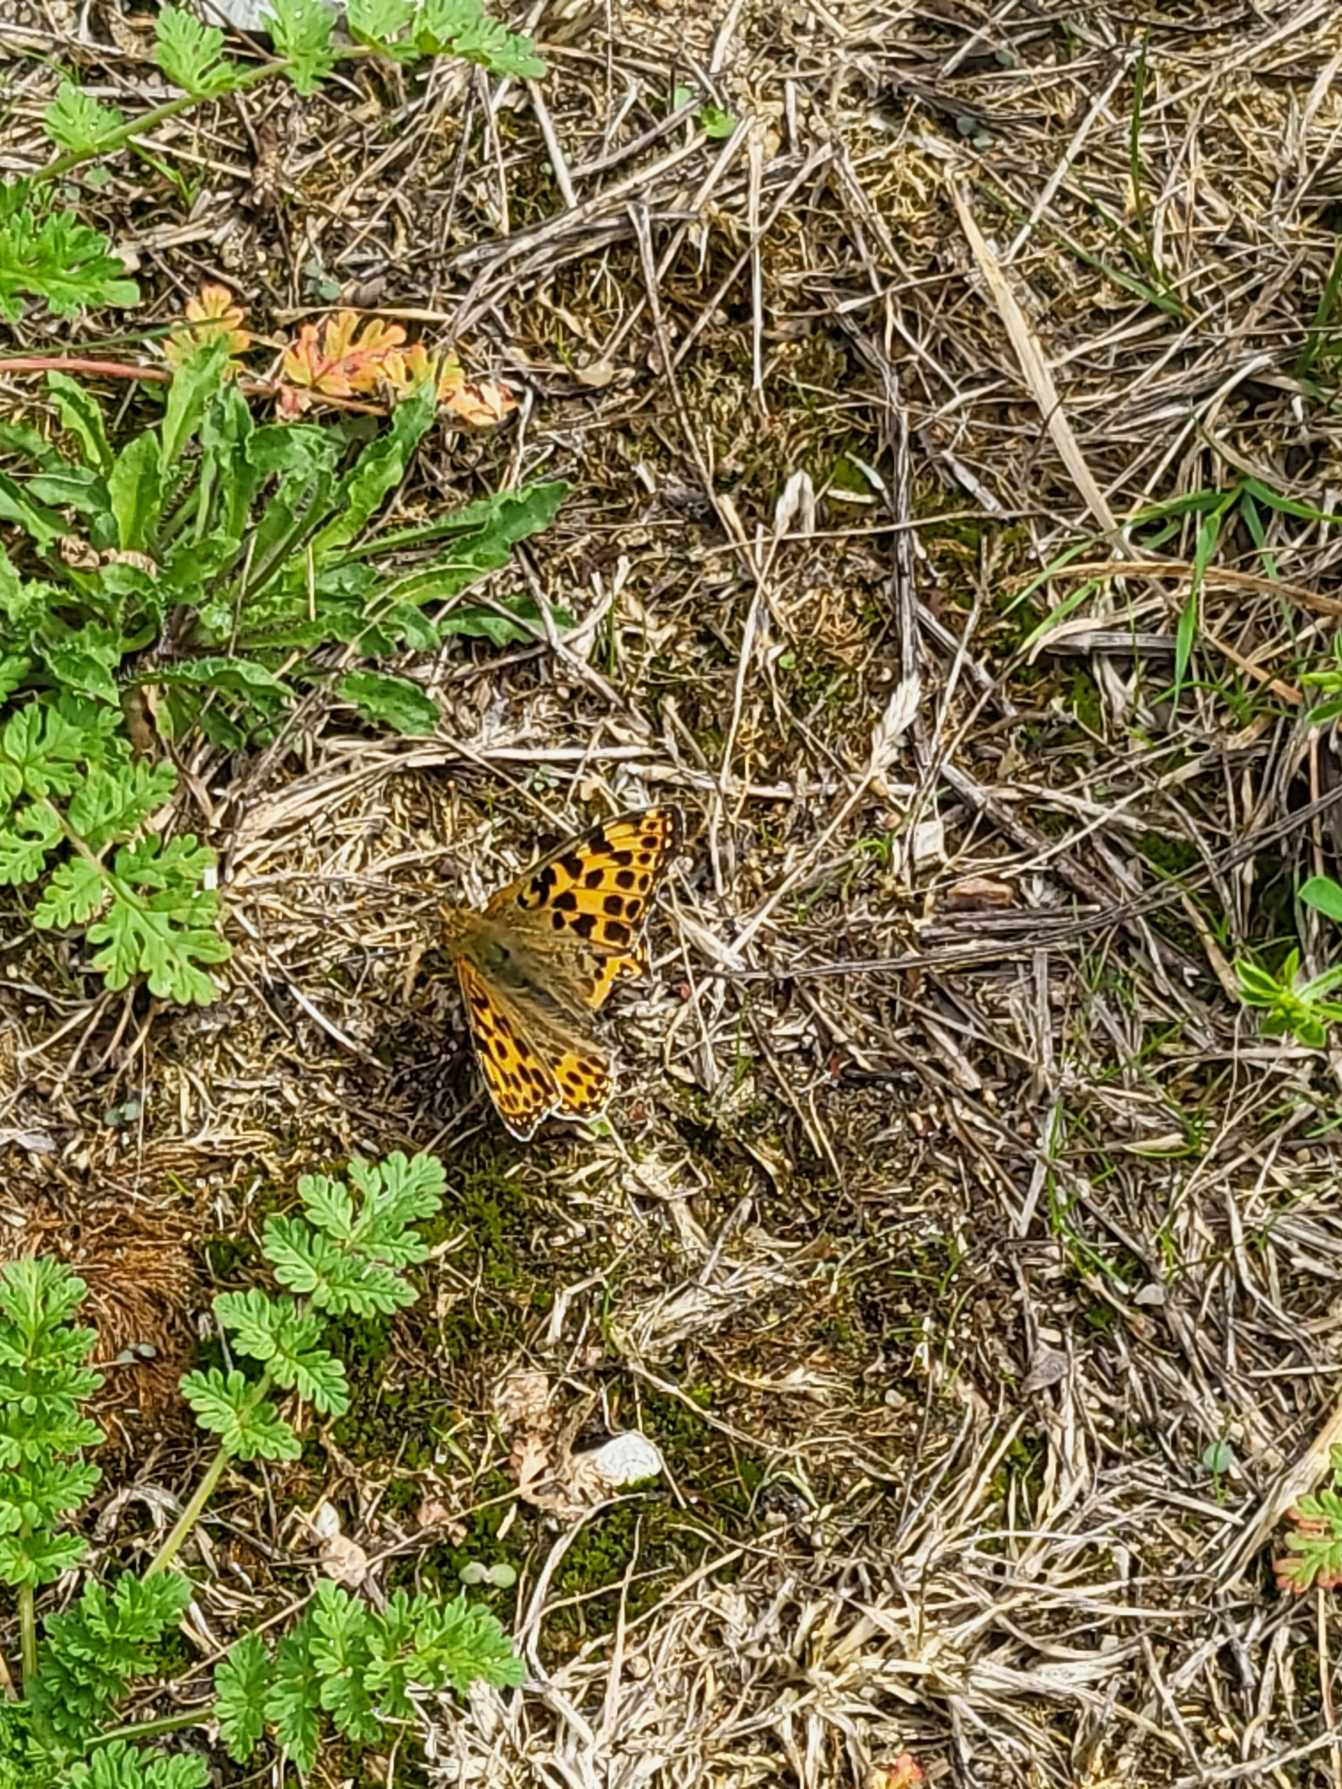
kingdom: Animalia
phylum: Arthropoda
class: Insecta
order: Lepidoptera
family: Nymphalidae
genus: Issoria
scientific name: Issoria lathonia
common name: Storplettet perlemorsommerfugl
